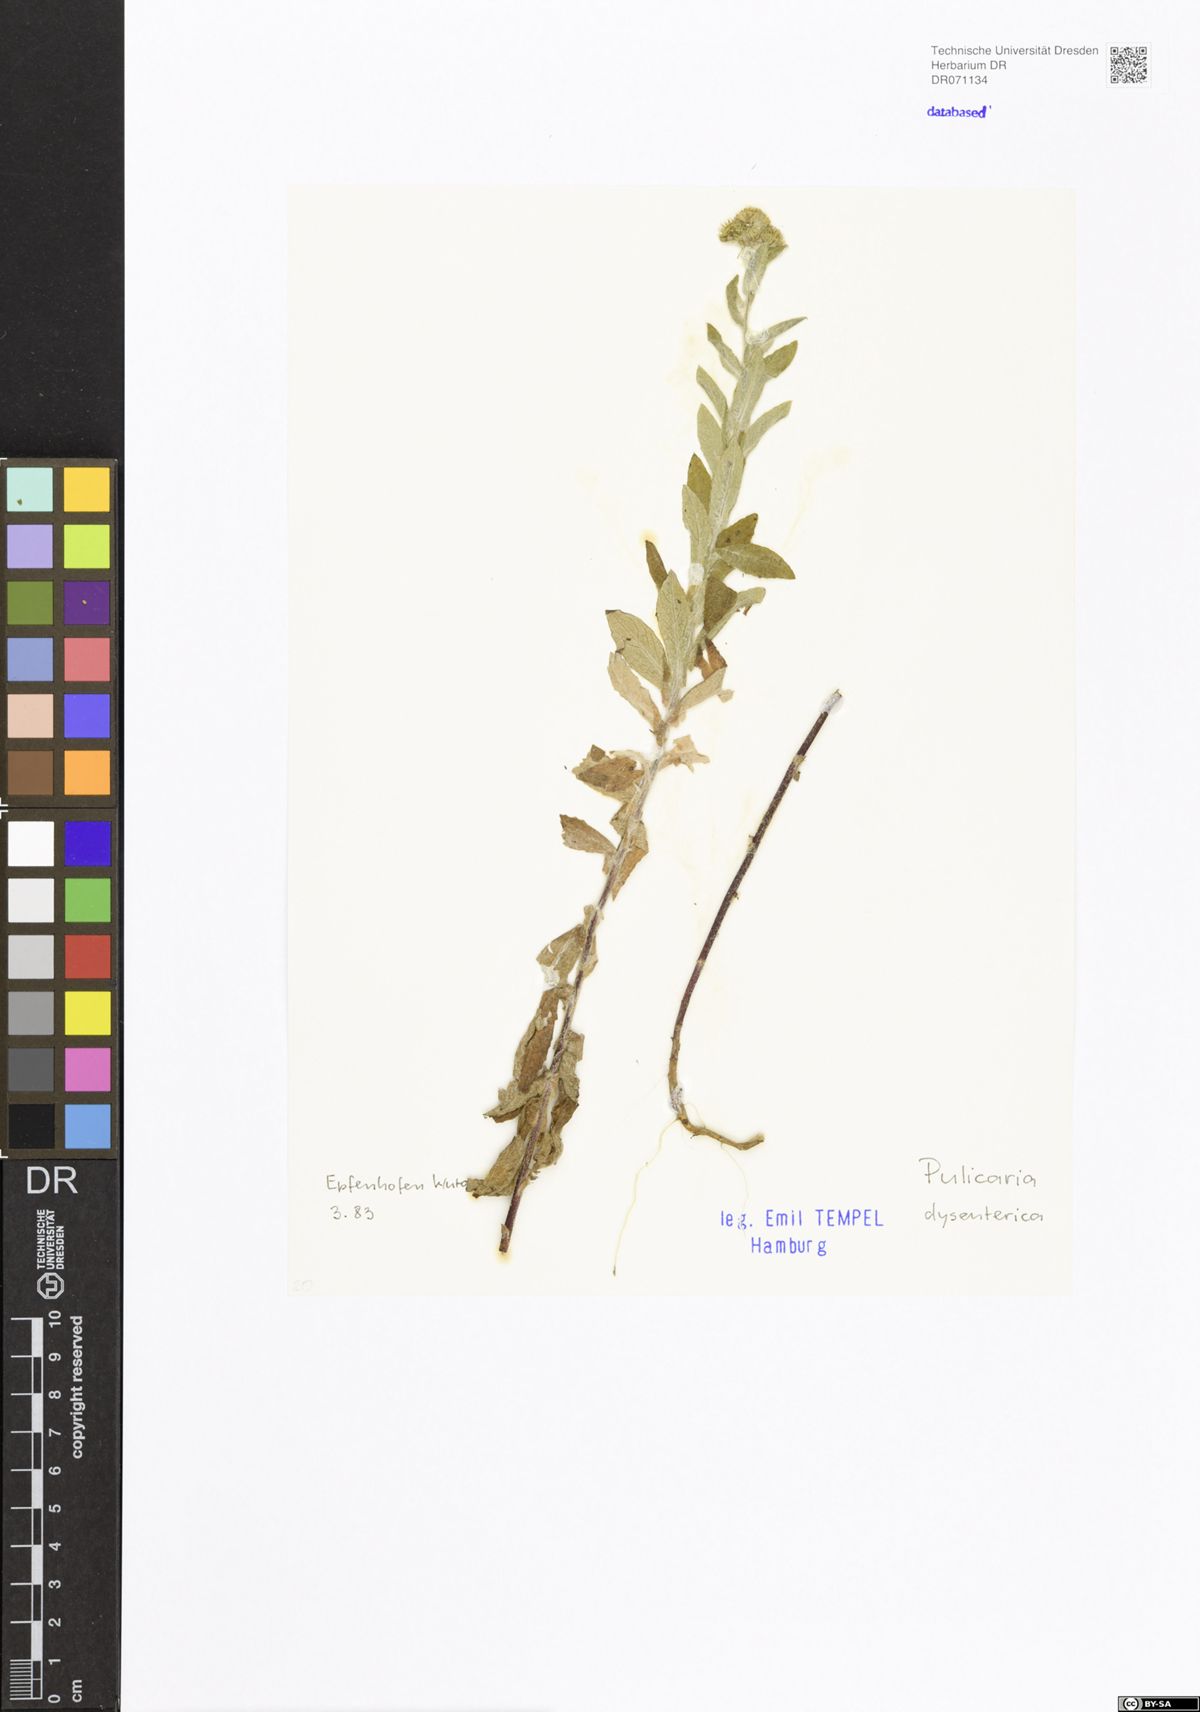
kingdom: Plantae
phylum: Tracheophyta
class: Magnoliopsida
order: Asterales
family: Asteraceae
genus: Pulicaria
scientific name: Pulicaria dysenterica
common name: Common fleabane
